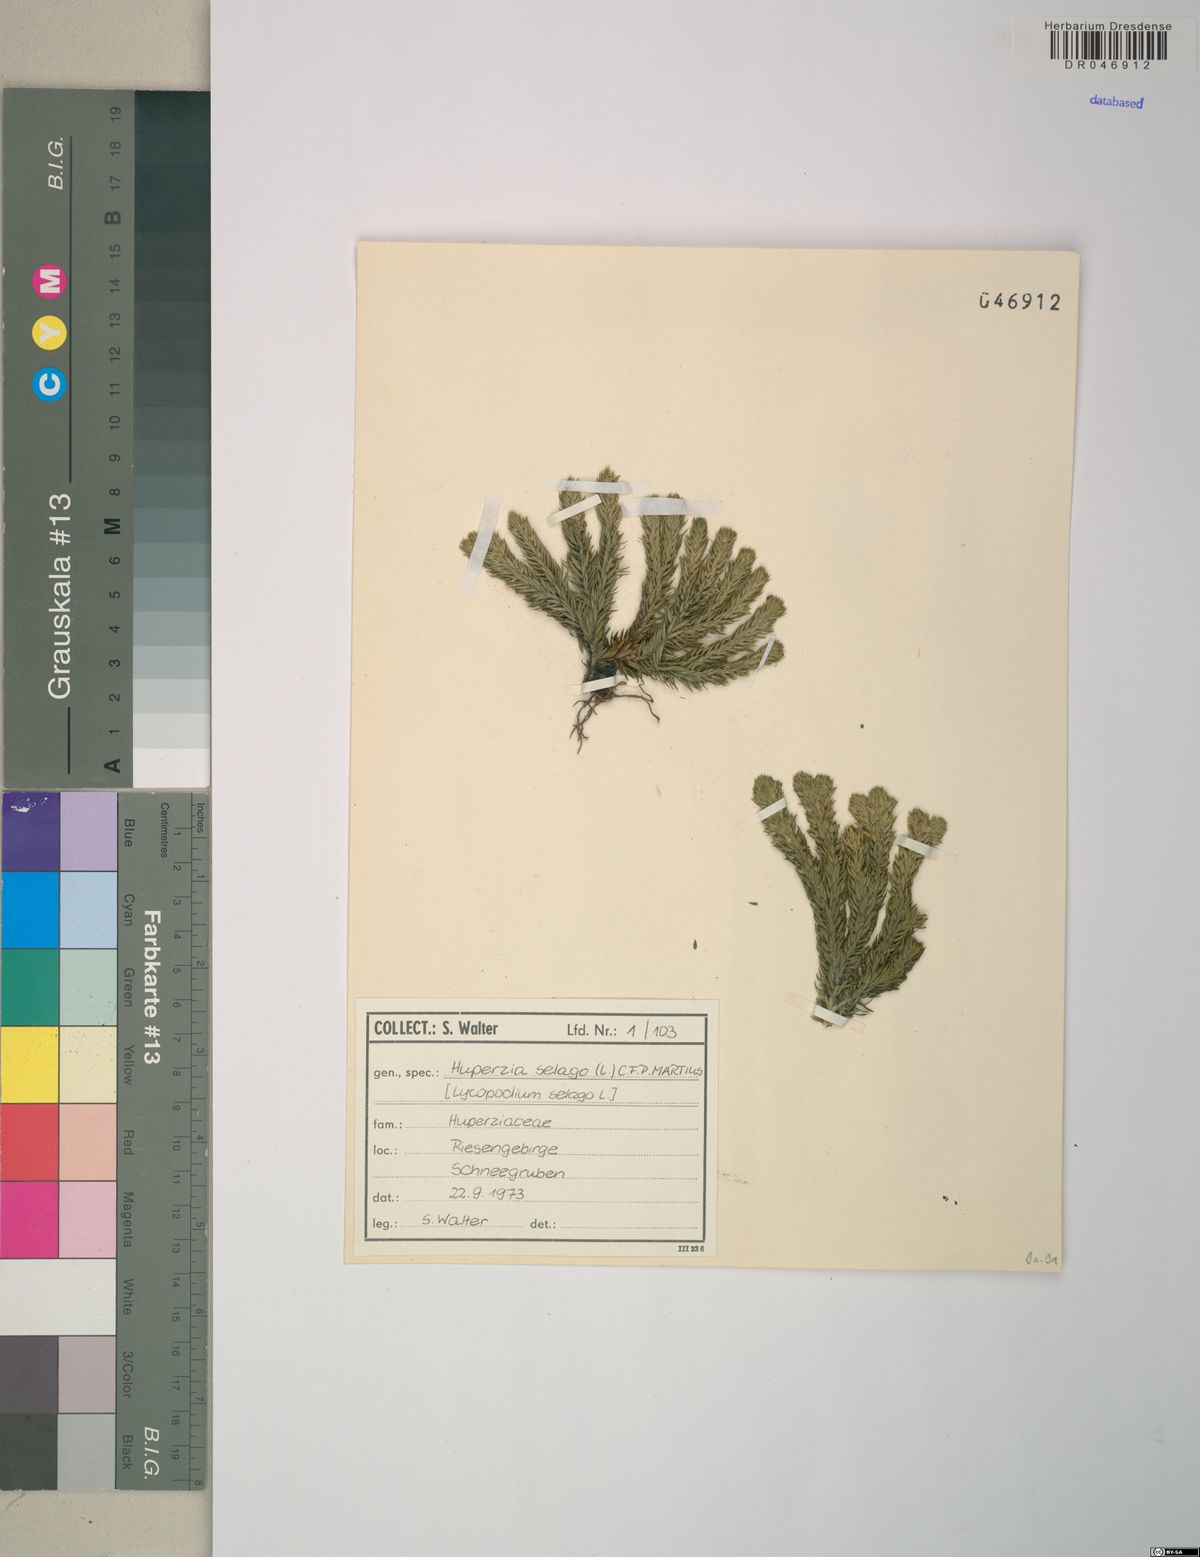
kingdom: Plantae
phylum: Tracheophyta
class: Lycopodiopsida
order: Lycopodiales
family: Lycopodiaceae
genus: Huperzia
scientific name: Huperzia selago
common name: Northern firmoss
